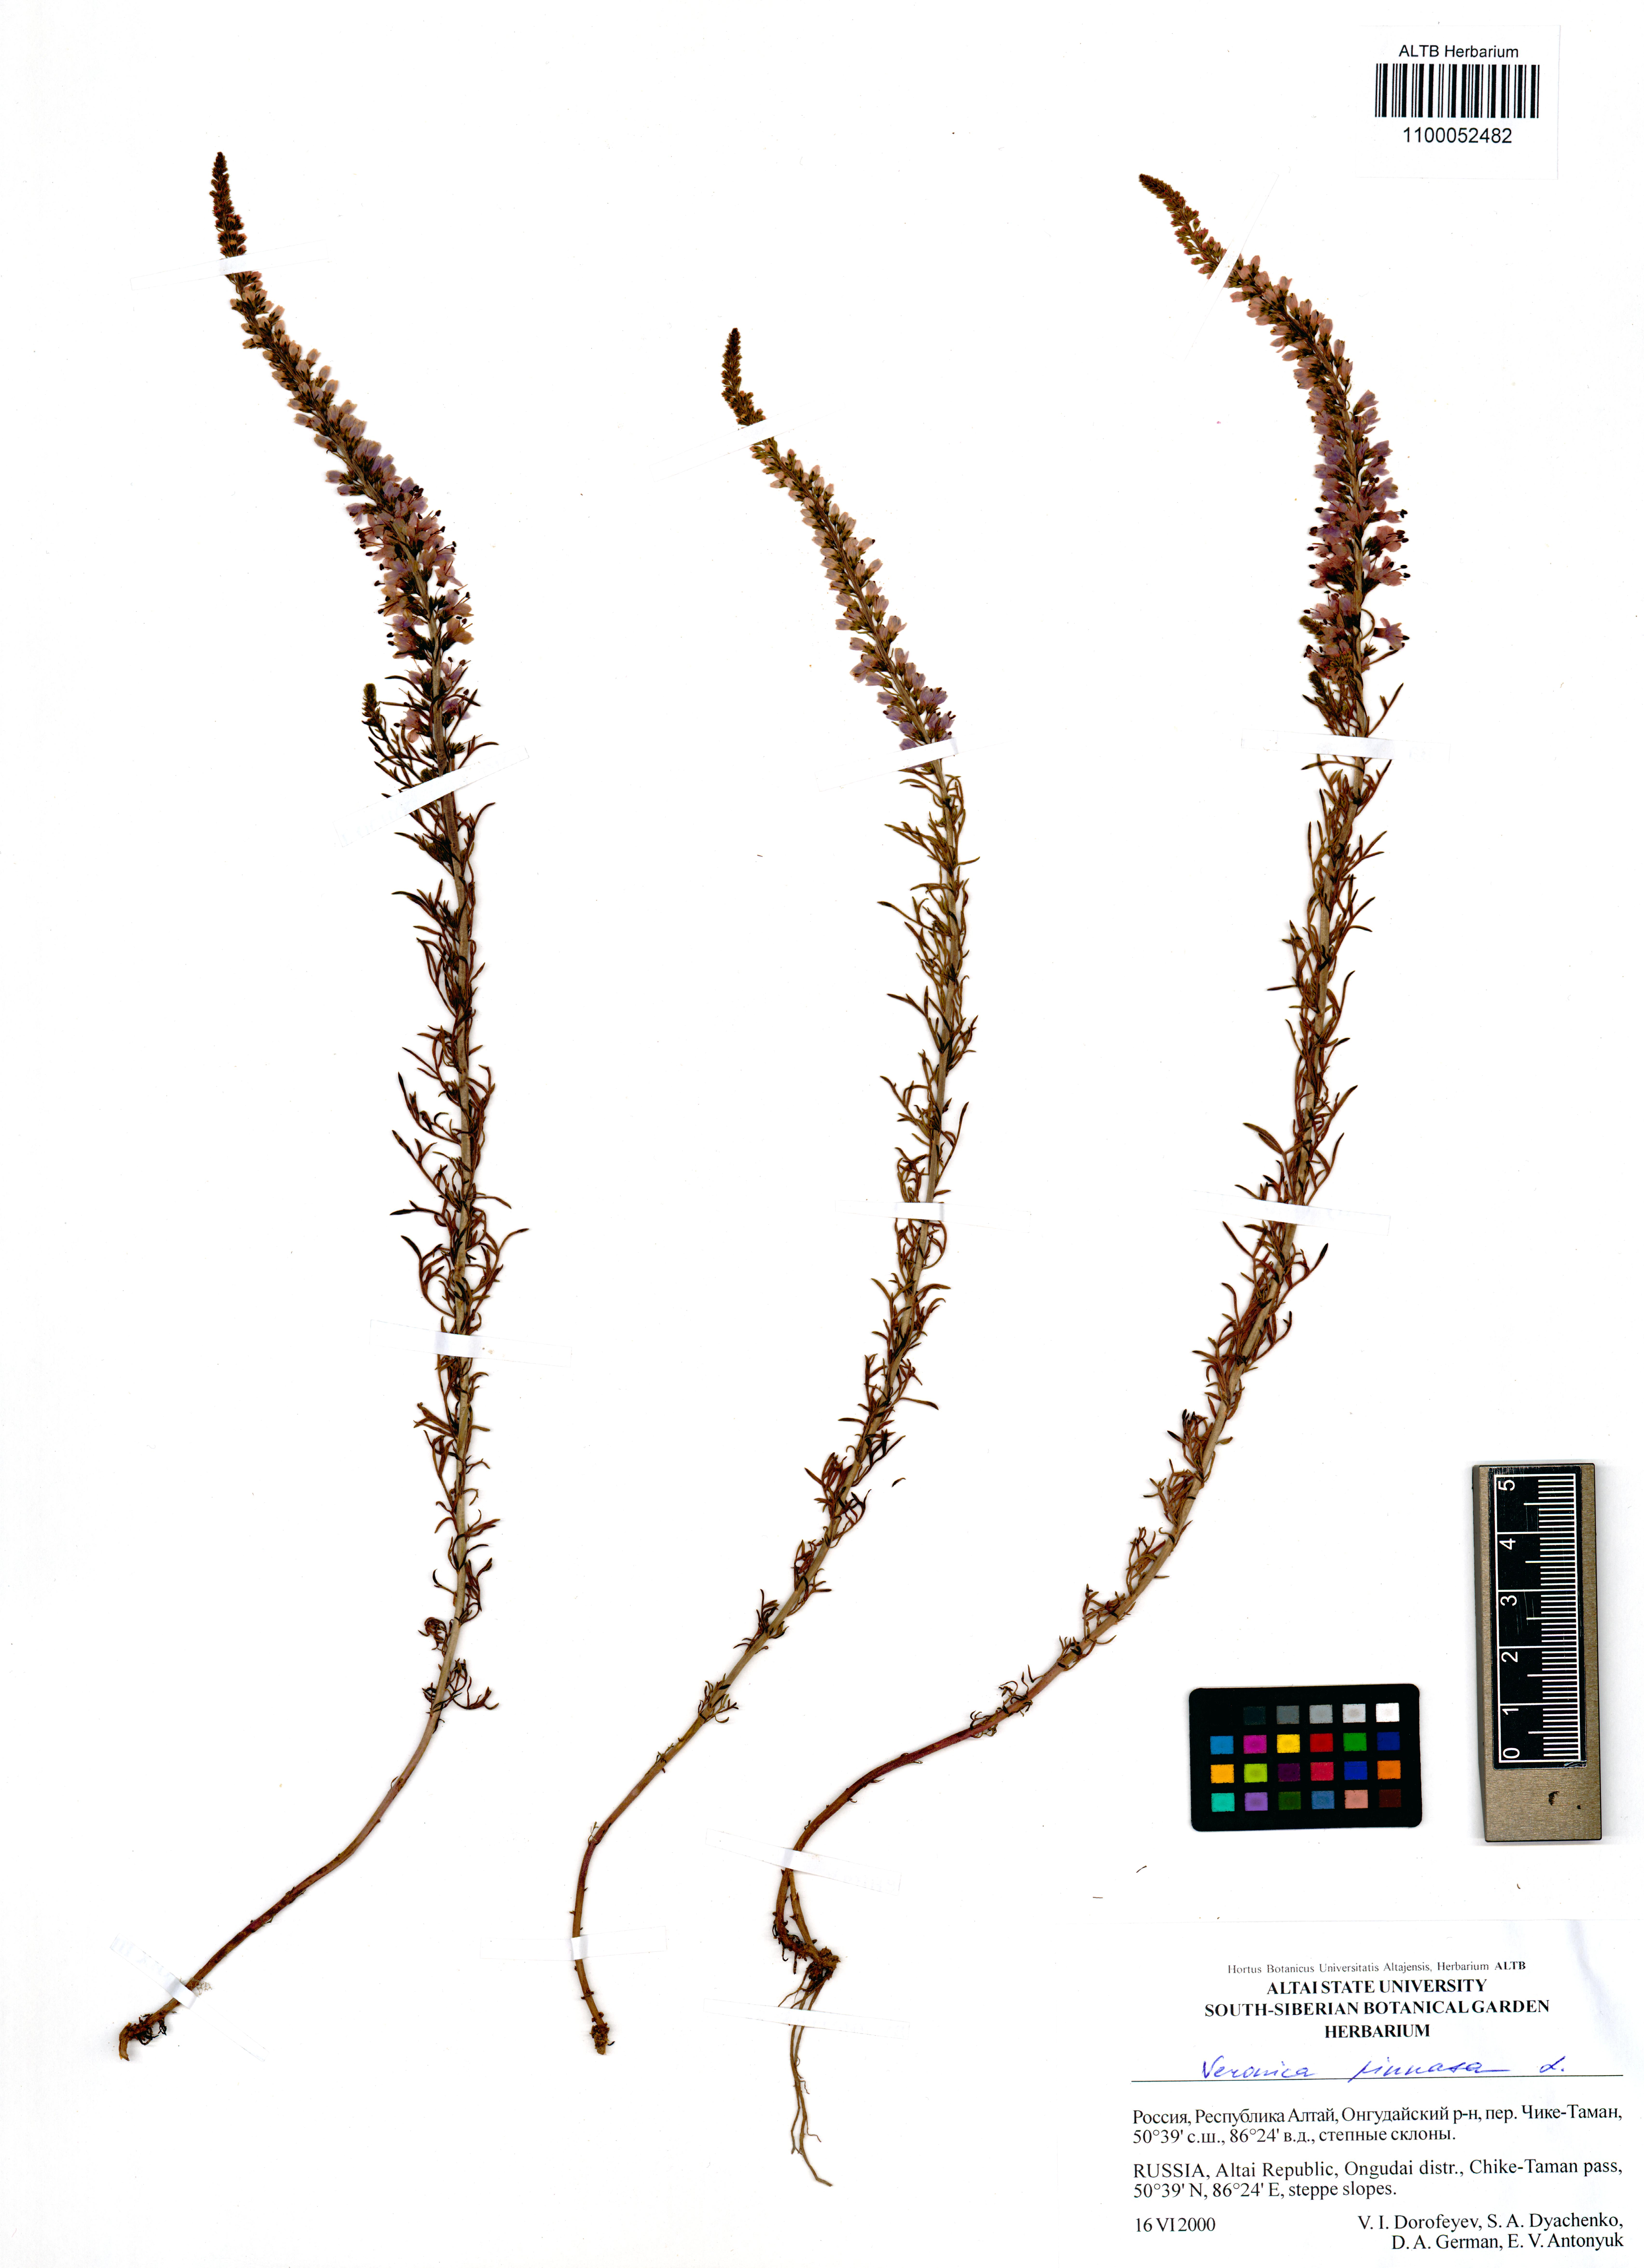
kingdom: Plantae
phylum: Tracheophyta
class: Magnoliopsida
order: Lamiales
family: Plantaginaceae
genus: Veronica
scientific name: Veronica pinnata
